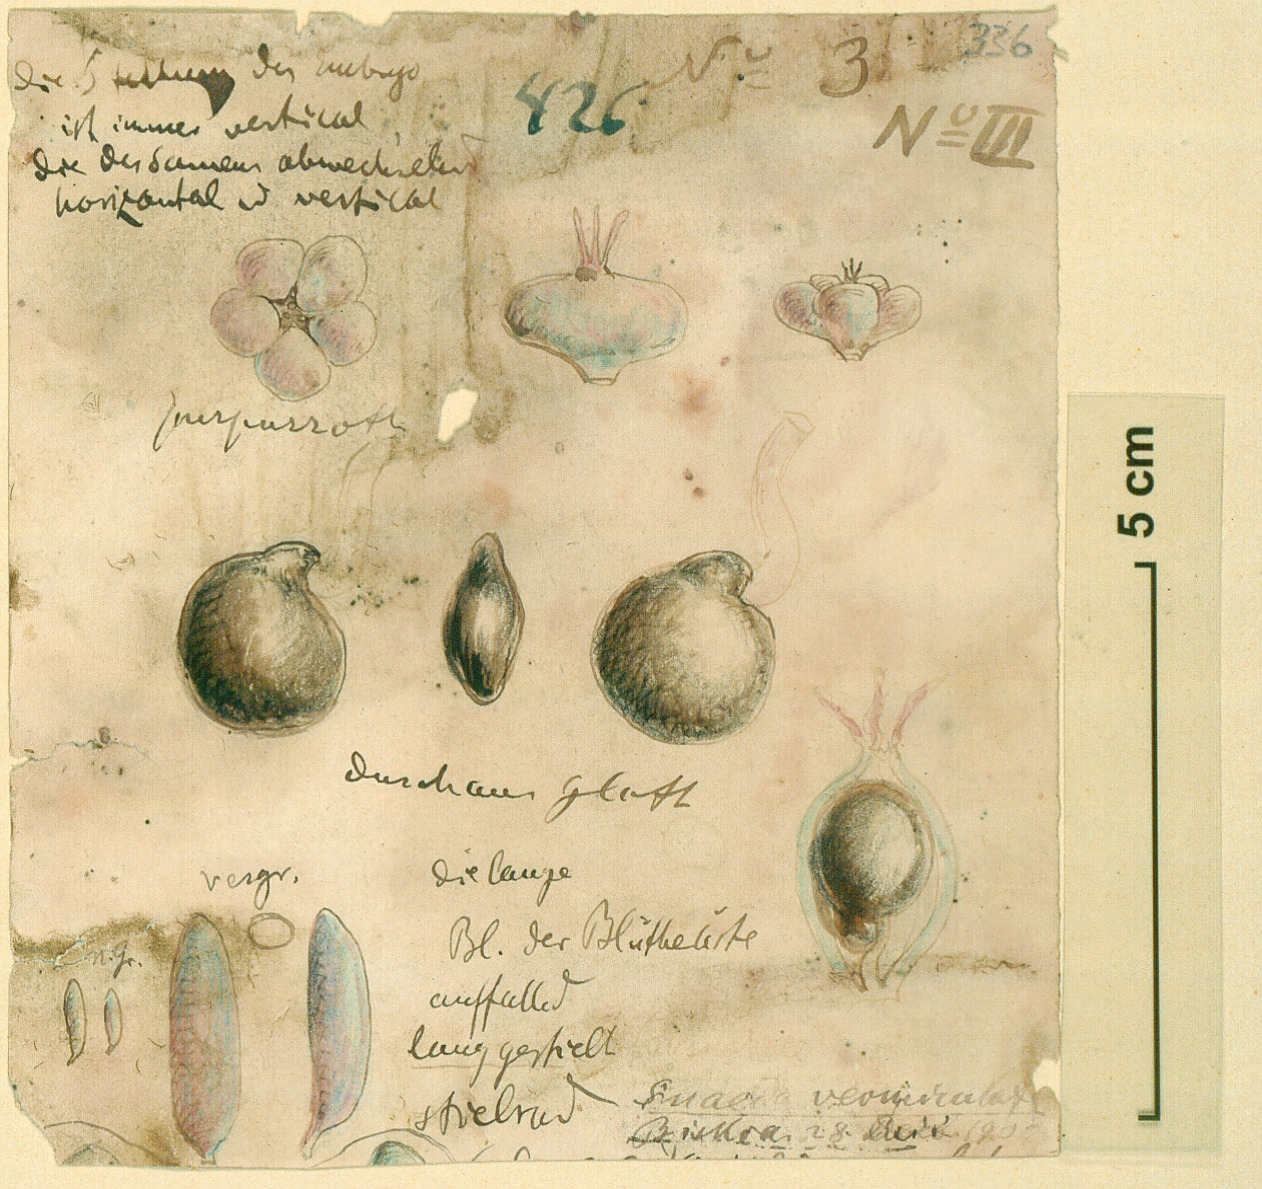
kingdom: Plantae
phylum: Tracheophyta
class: Magnoliopsida
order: Caryophyllales
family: Amaranthaceae
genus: Suaeda
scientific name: Suaeda vermiculata
